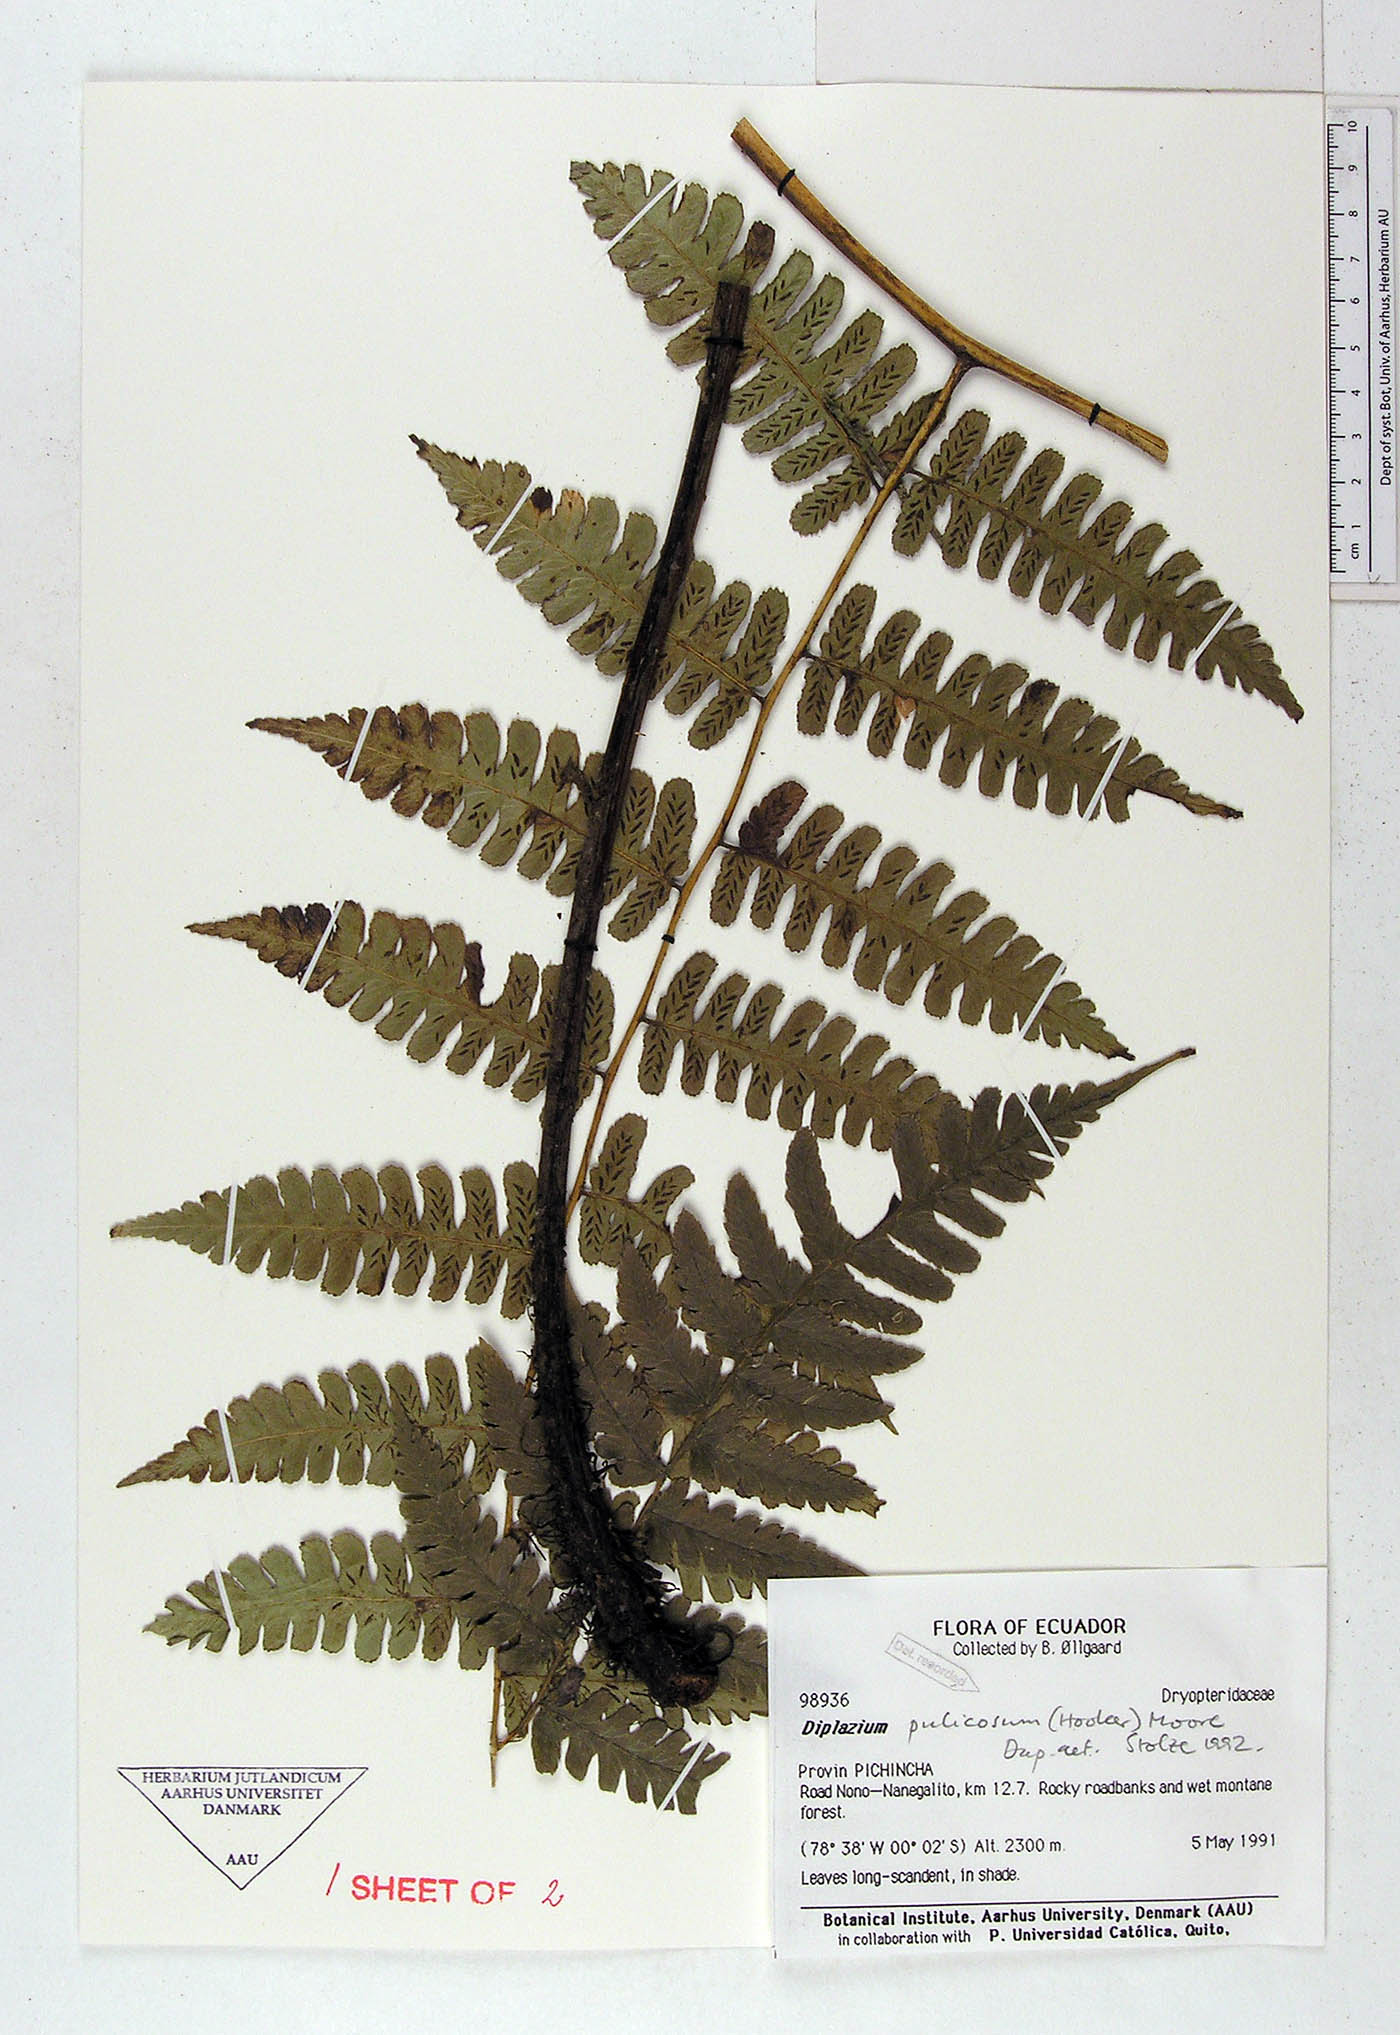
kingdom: Plantae
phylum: Tracheophyta
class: Polypodiopsida
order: Polypodiales
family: Athyriaceae
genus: Diplazium
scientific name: Diplazium pulicosum
